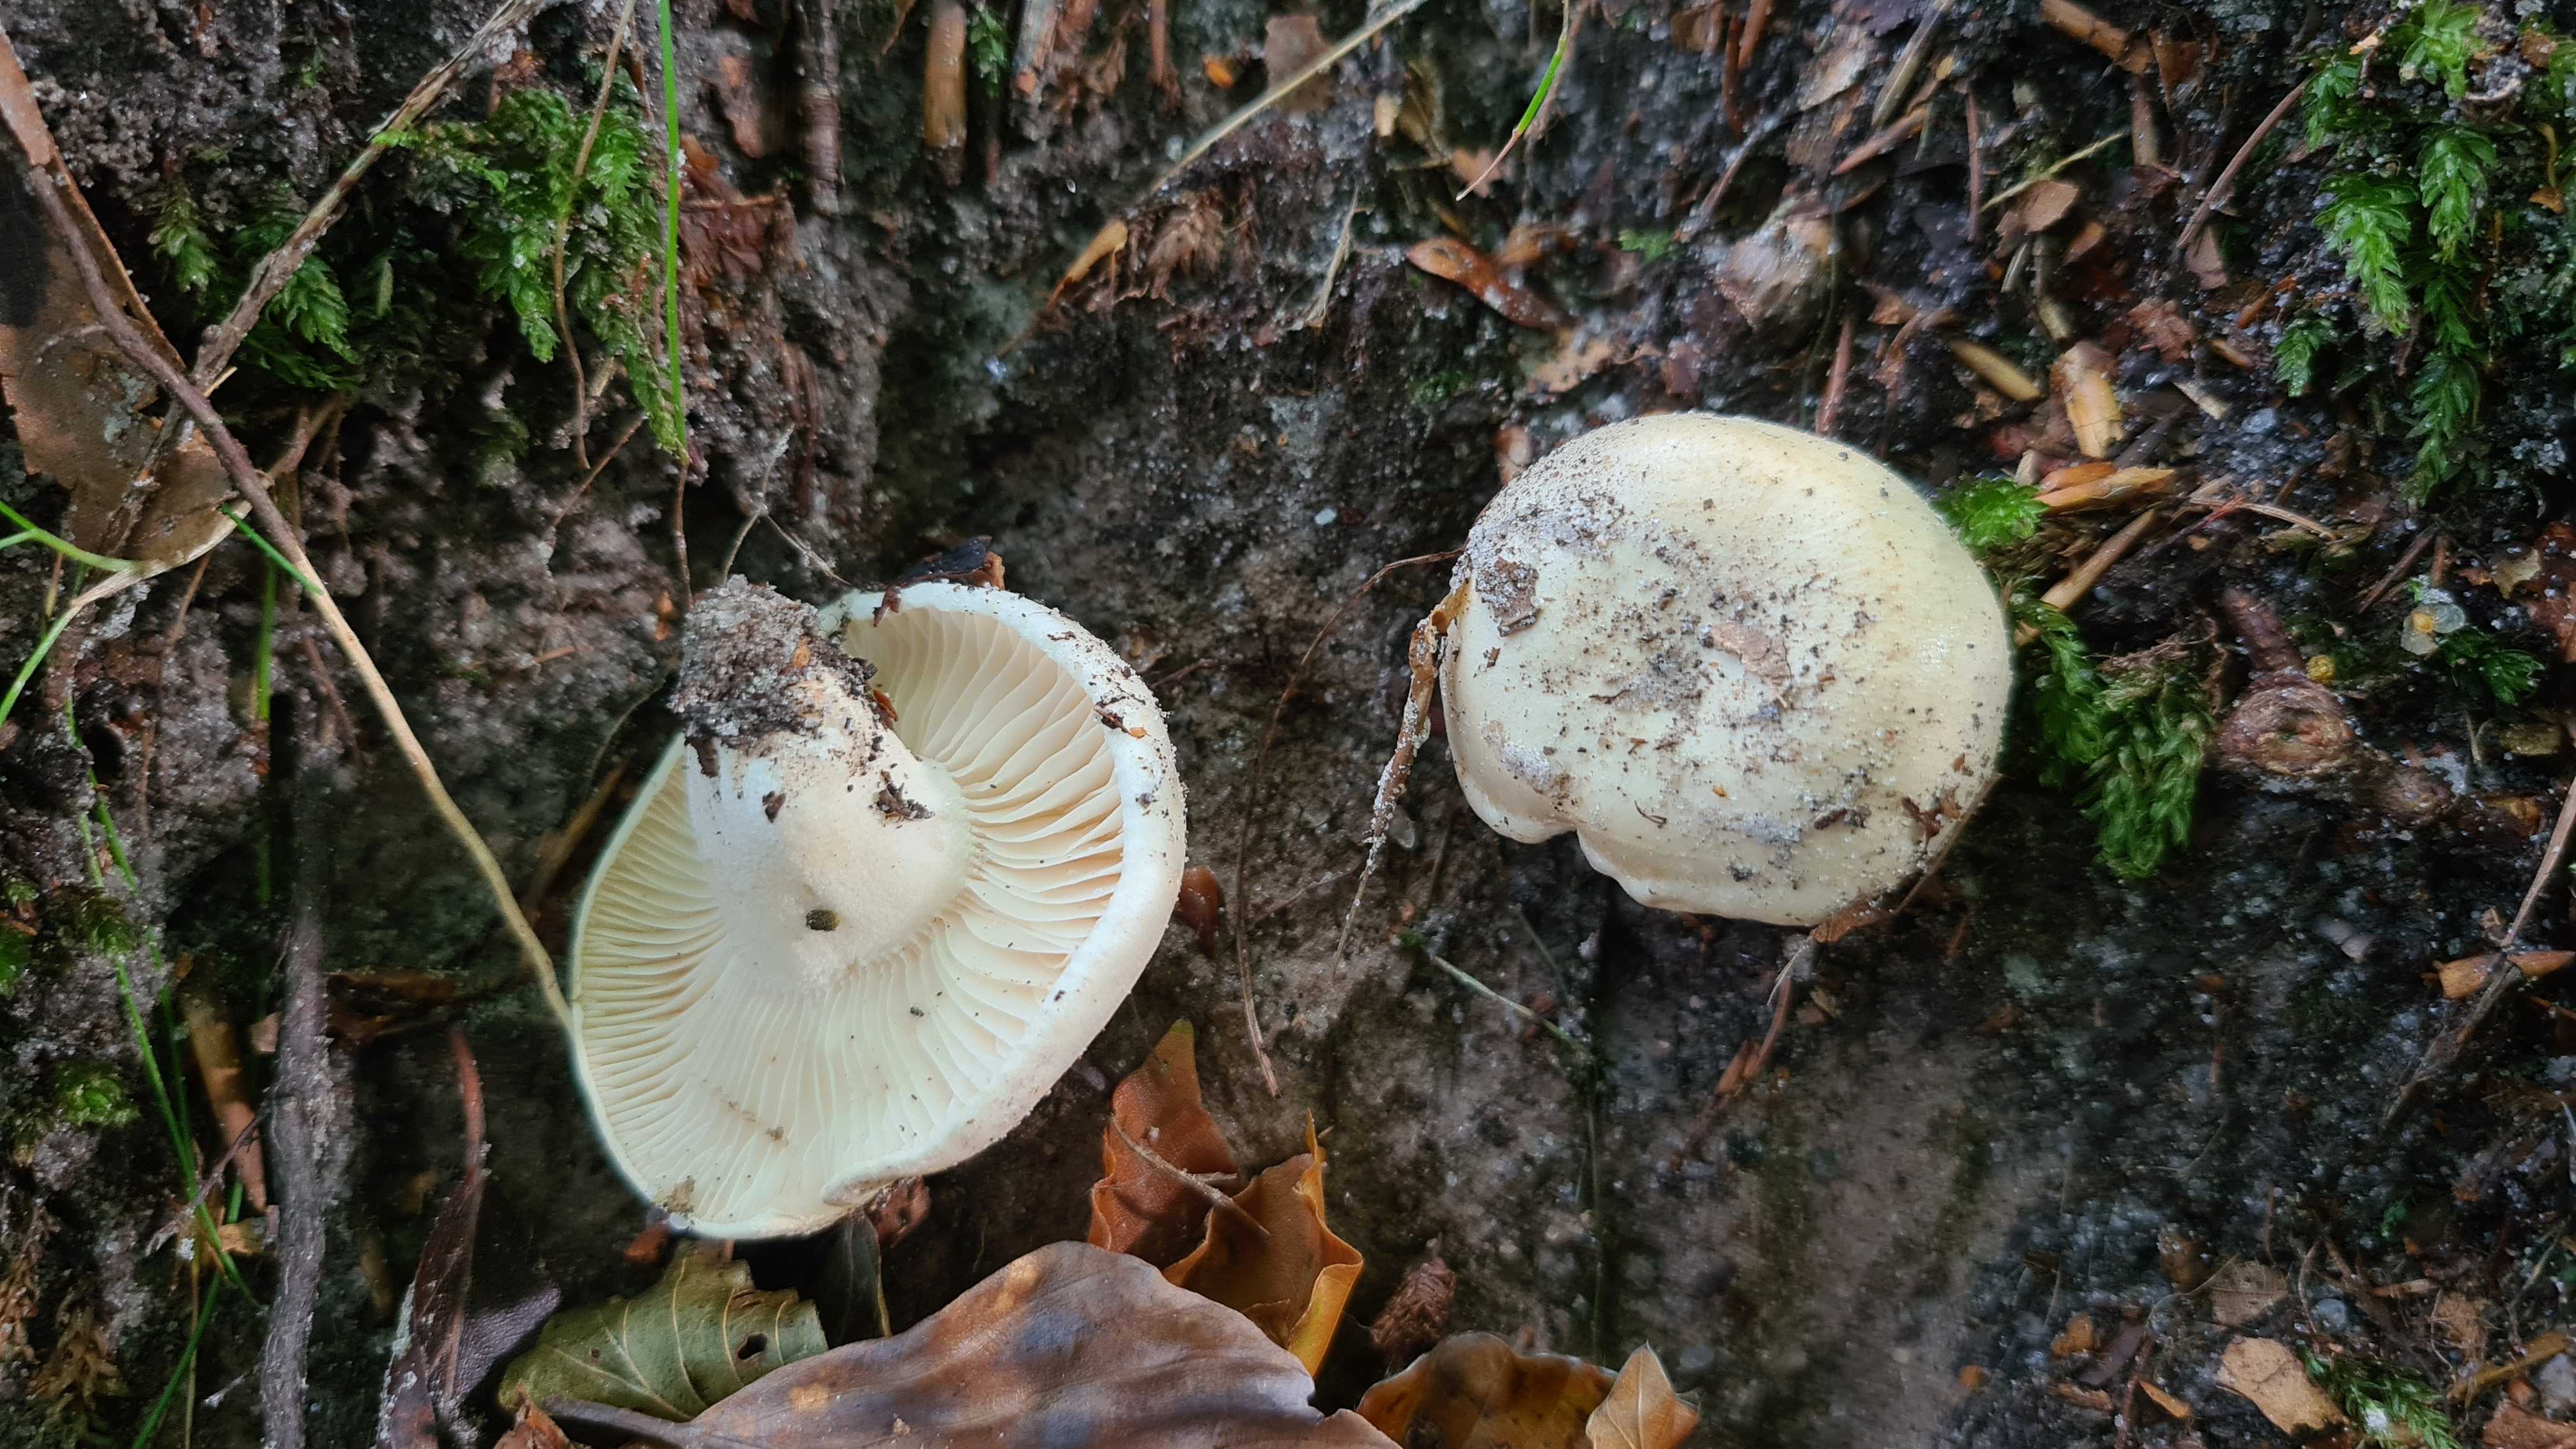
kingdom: Fungi
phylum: Basidiomycota
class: Agaricomycetes
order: Agaricales
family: Hygrophoraceae
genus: Hygrophorus
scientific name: Hygrophorus penarius
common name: spiselig sneglehat
